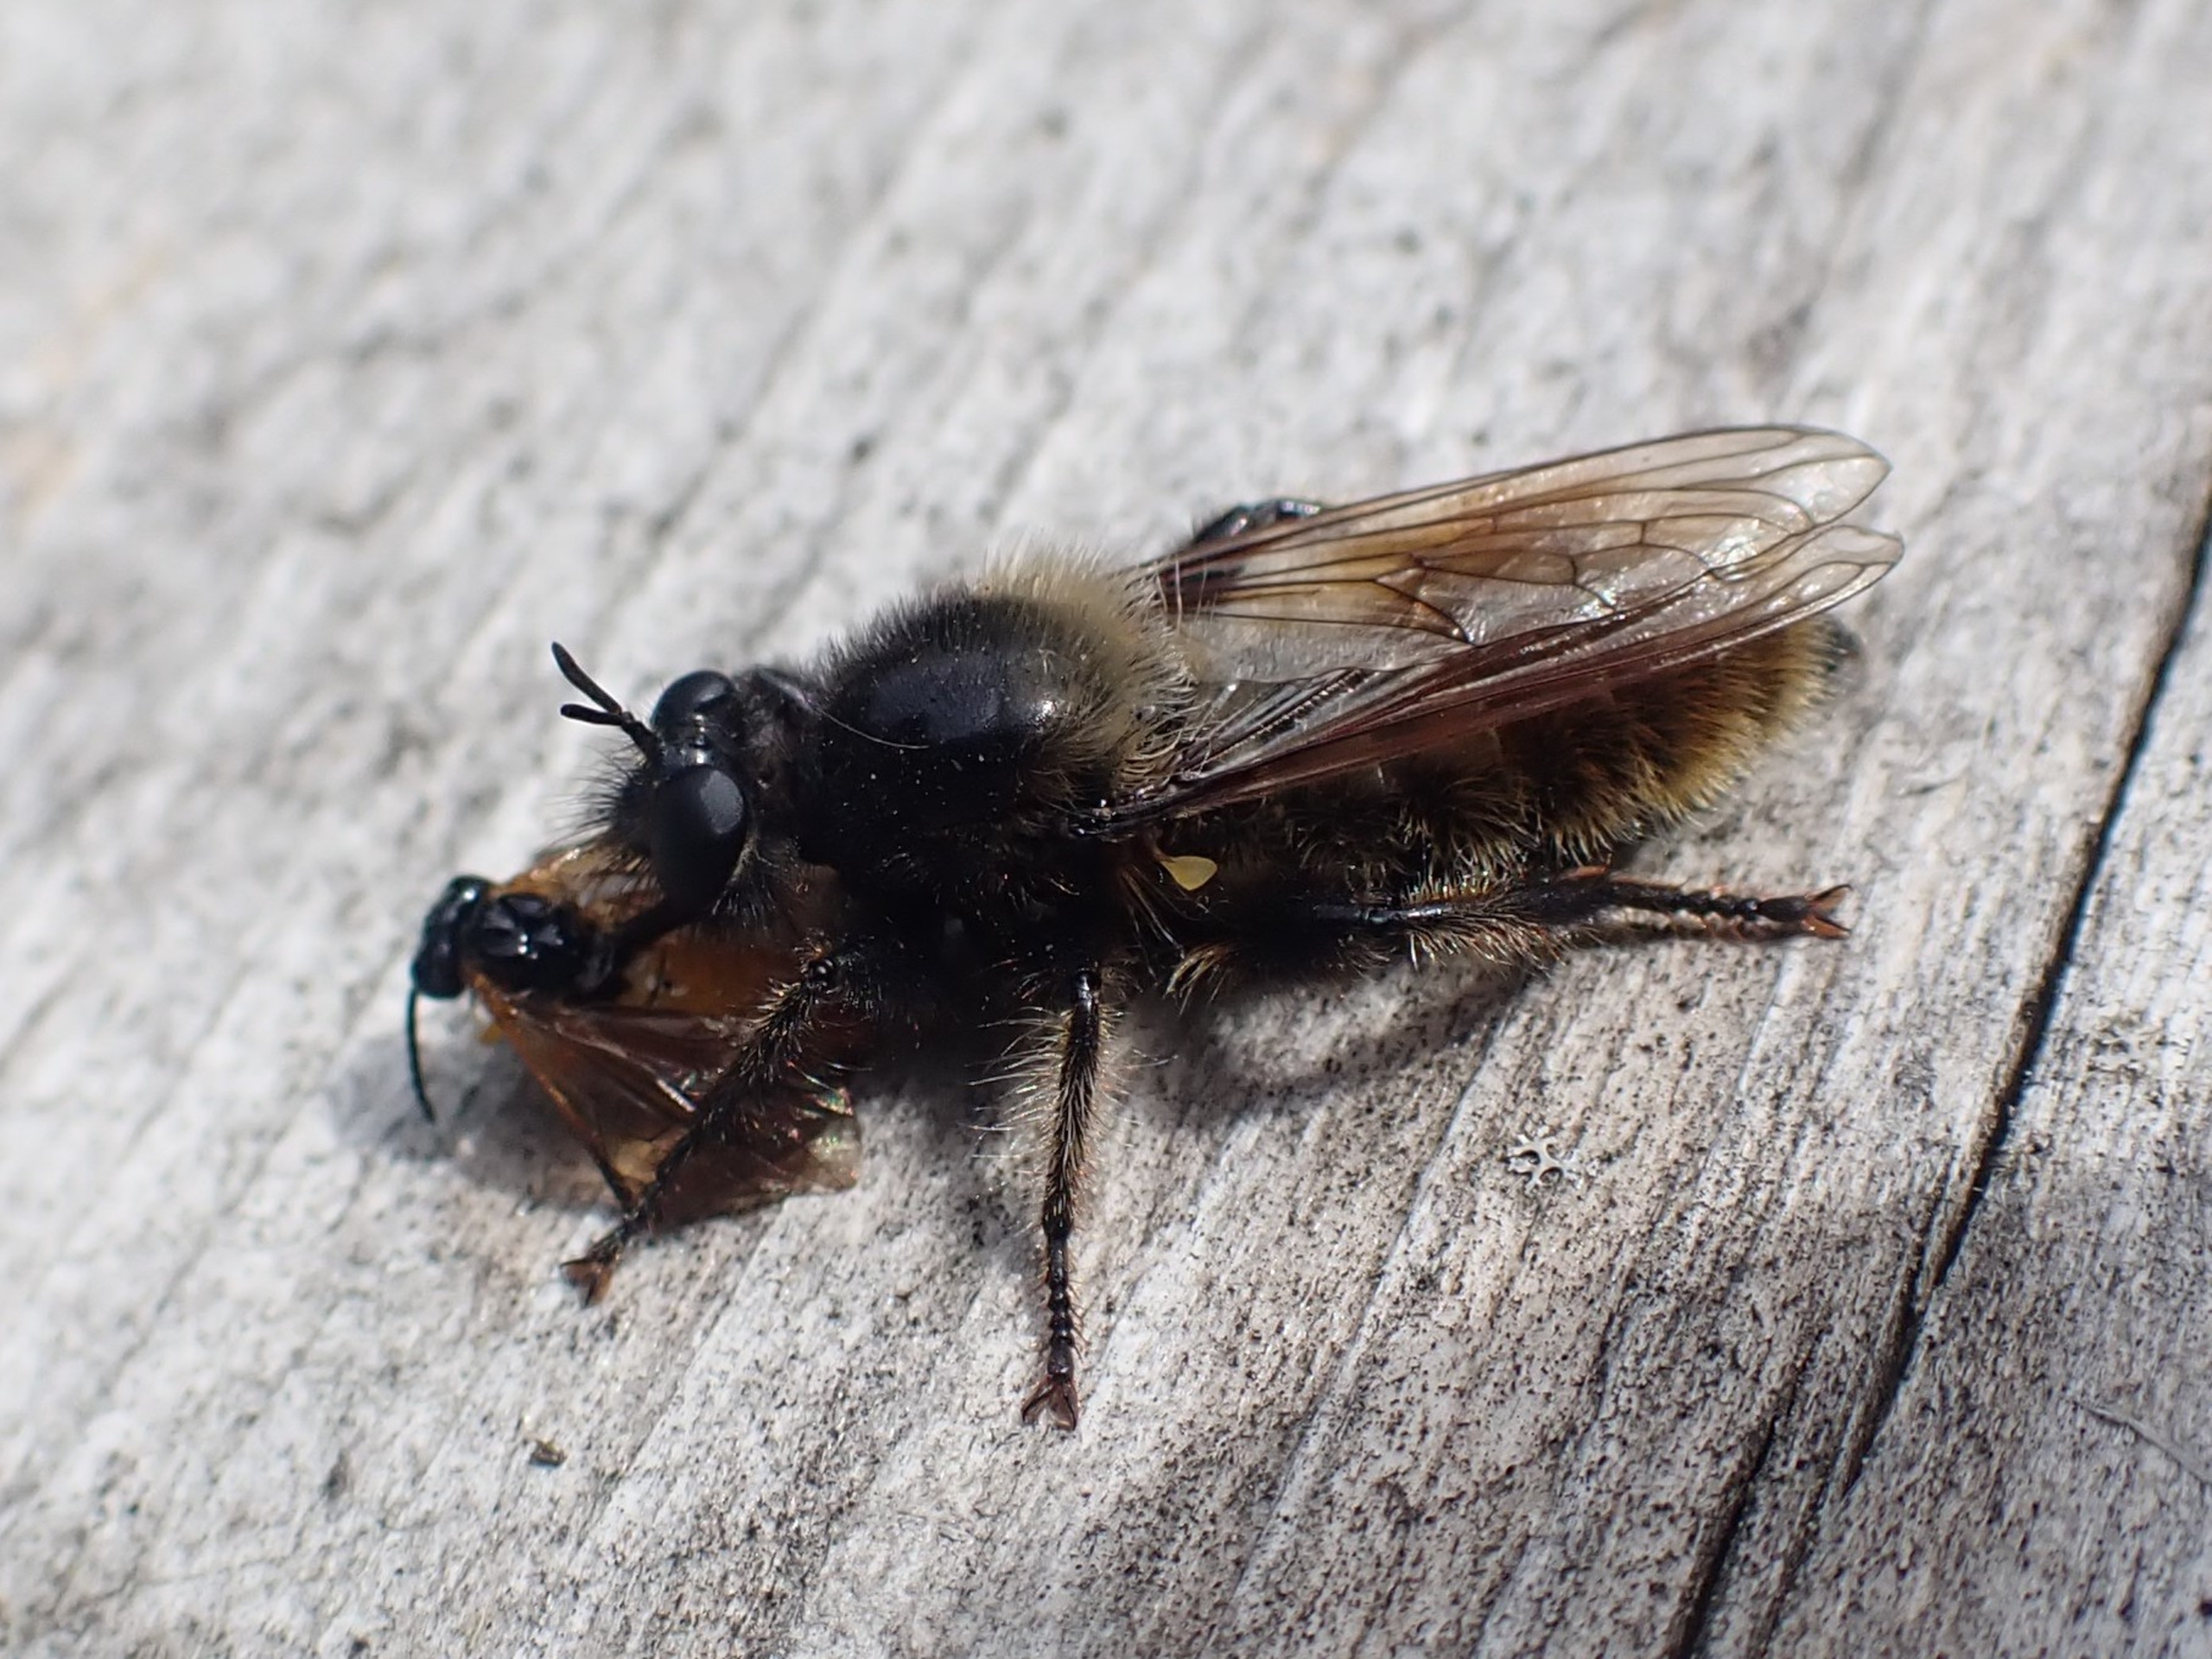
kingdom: Animalia
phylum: Arthropoda
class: Insecta
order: Diptera
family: Asilidae
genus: Laphria
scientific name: Laphria flava
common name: Gul vedrovflue
